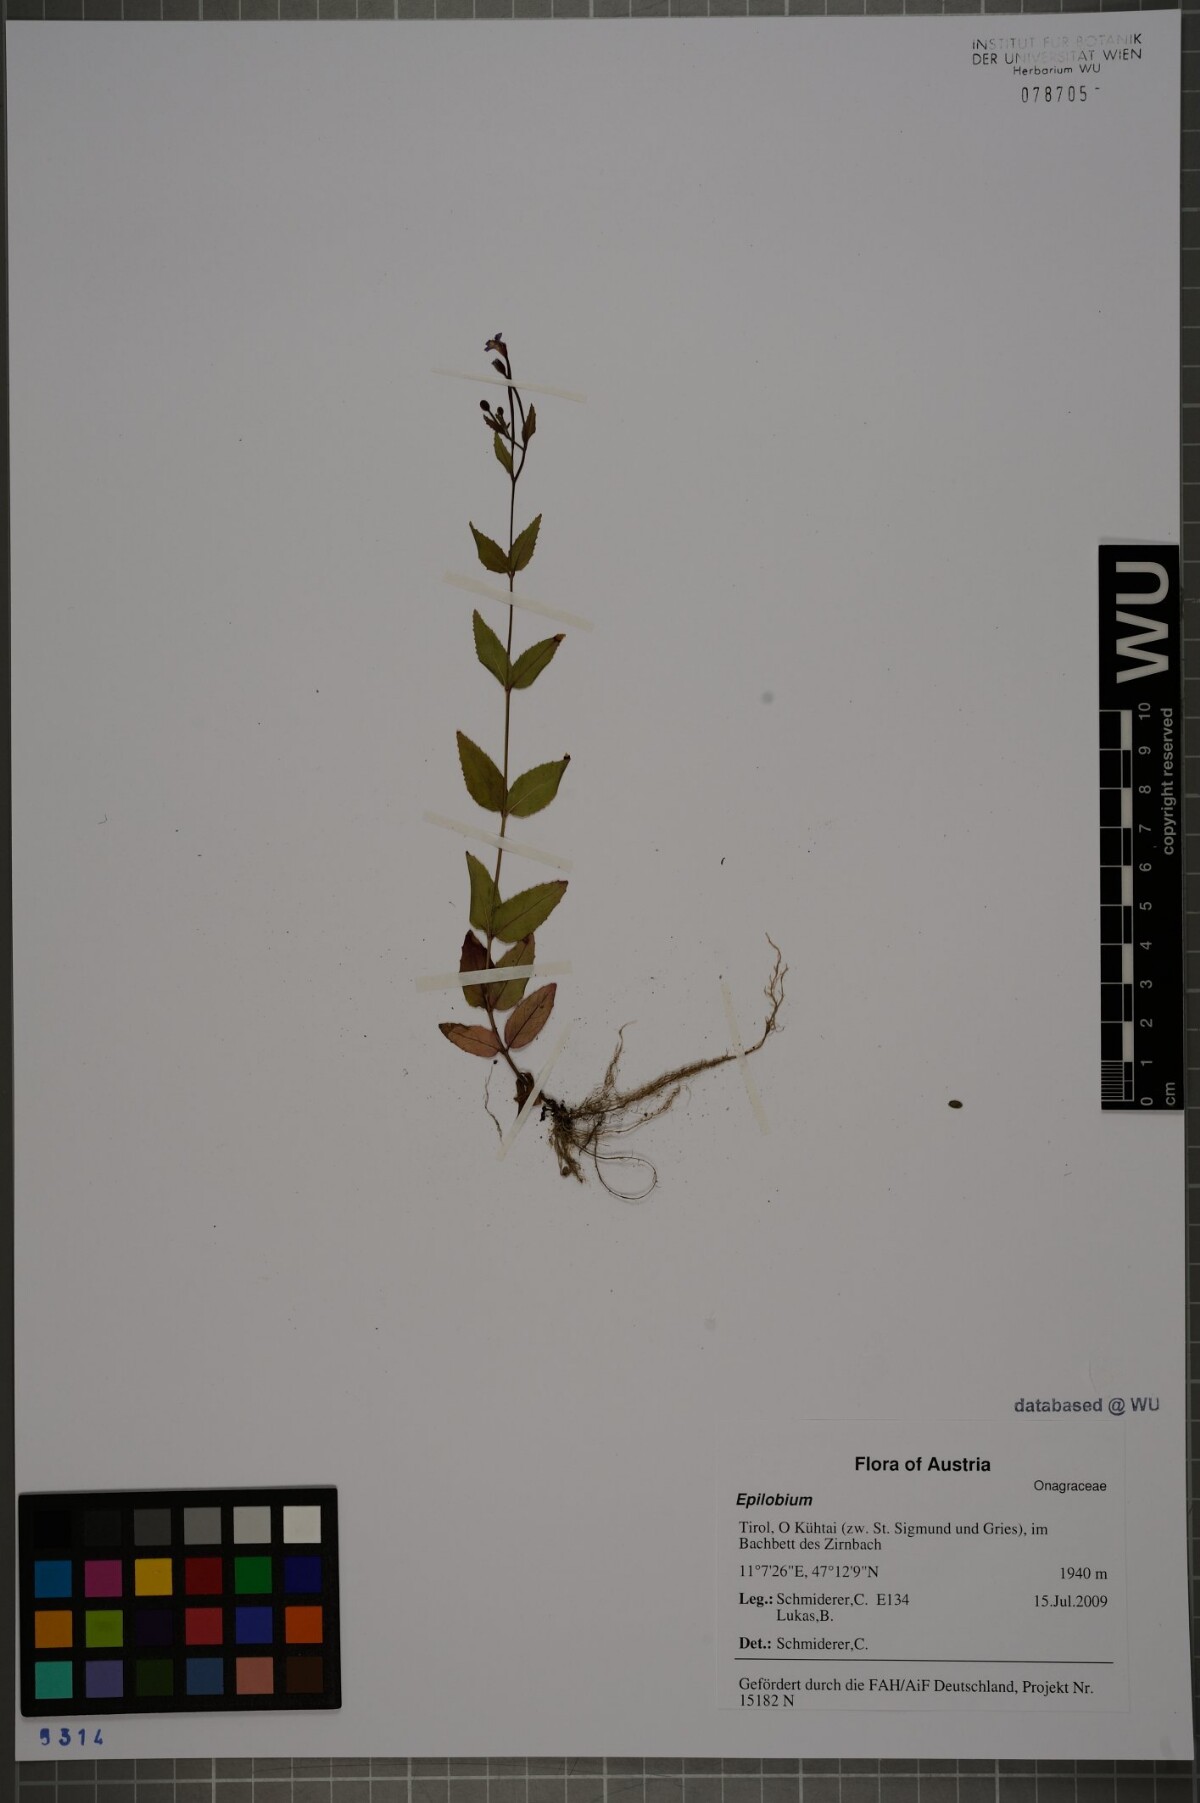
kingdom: Plantae
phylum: Tracheophyta
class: Magnoliopsida
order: Myrtales
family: Onagraceae
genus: Epilobium
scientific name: Epilobium montanum
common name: Broad-leaved willowherb
